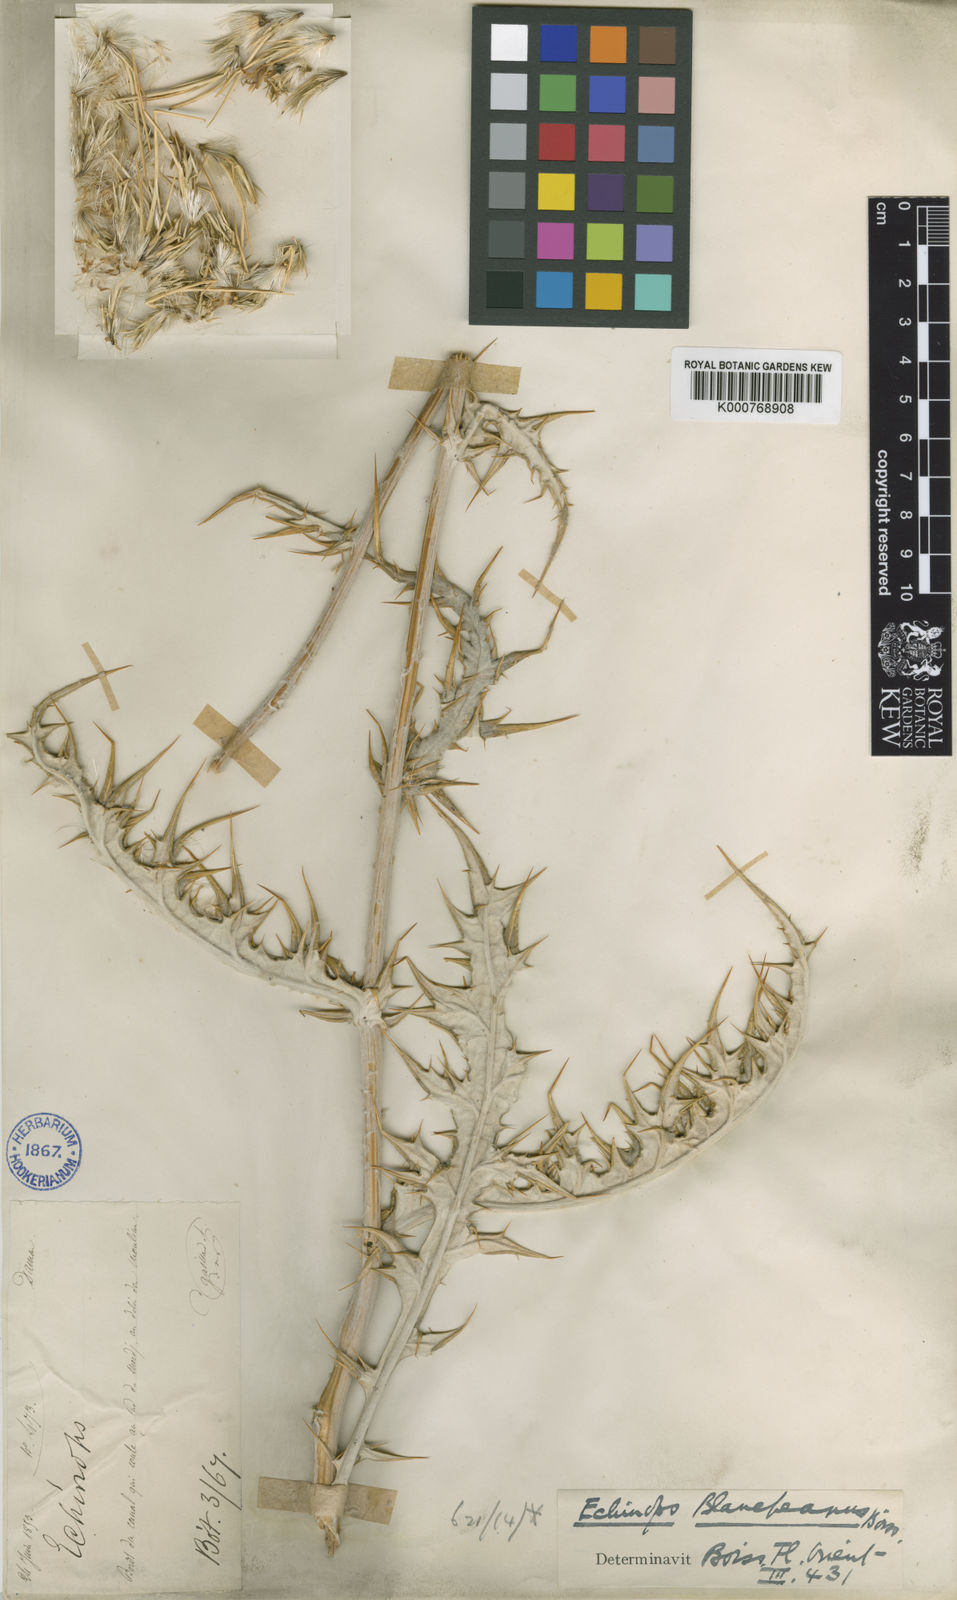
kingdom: Plantae
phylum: Tracheophyta
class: Magnoliopsida
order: Asterales
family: Asteraceae
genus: Echinops
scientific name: Echinops polyceras
